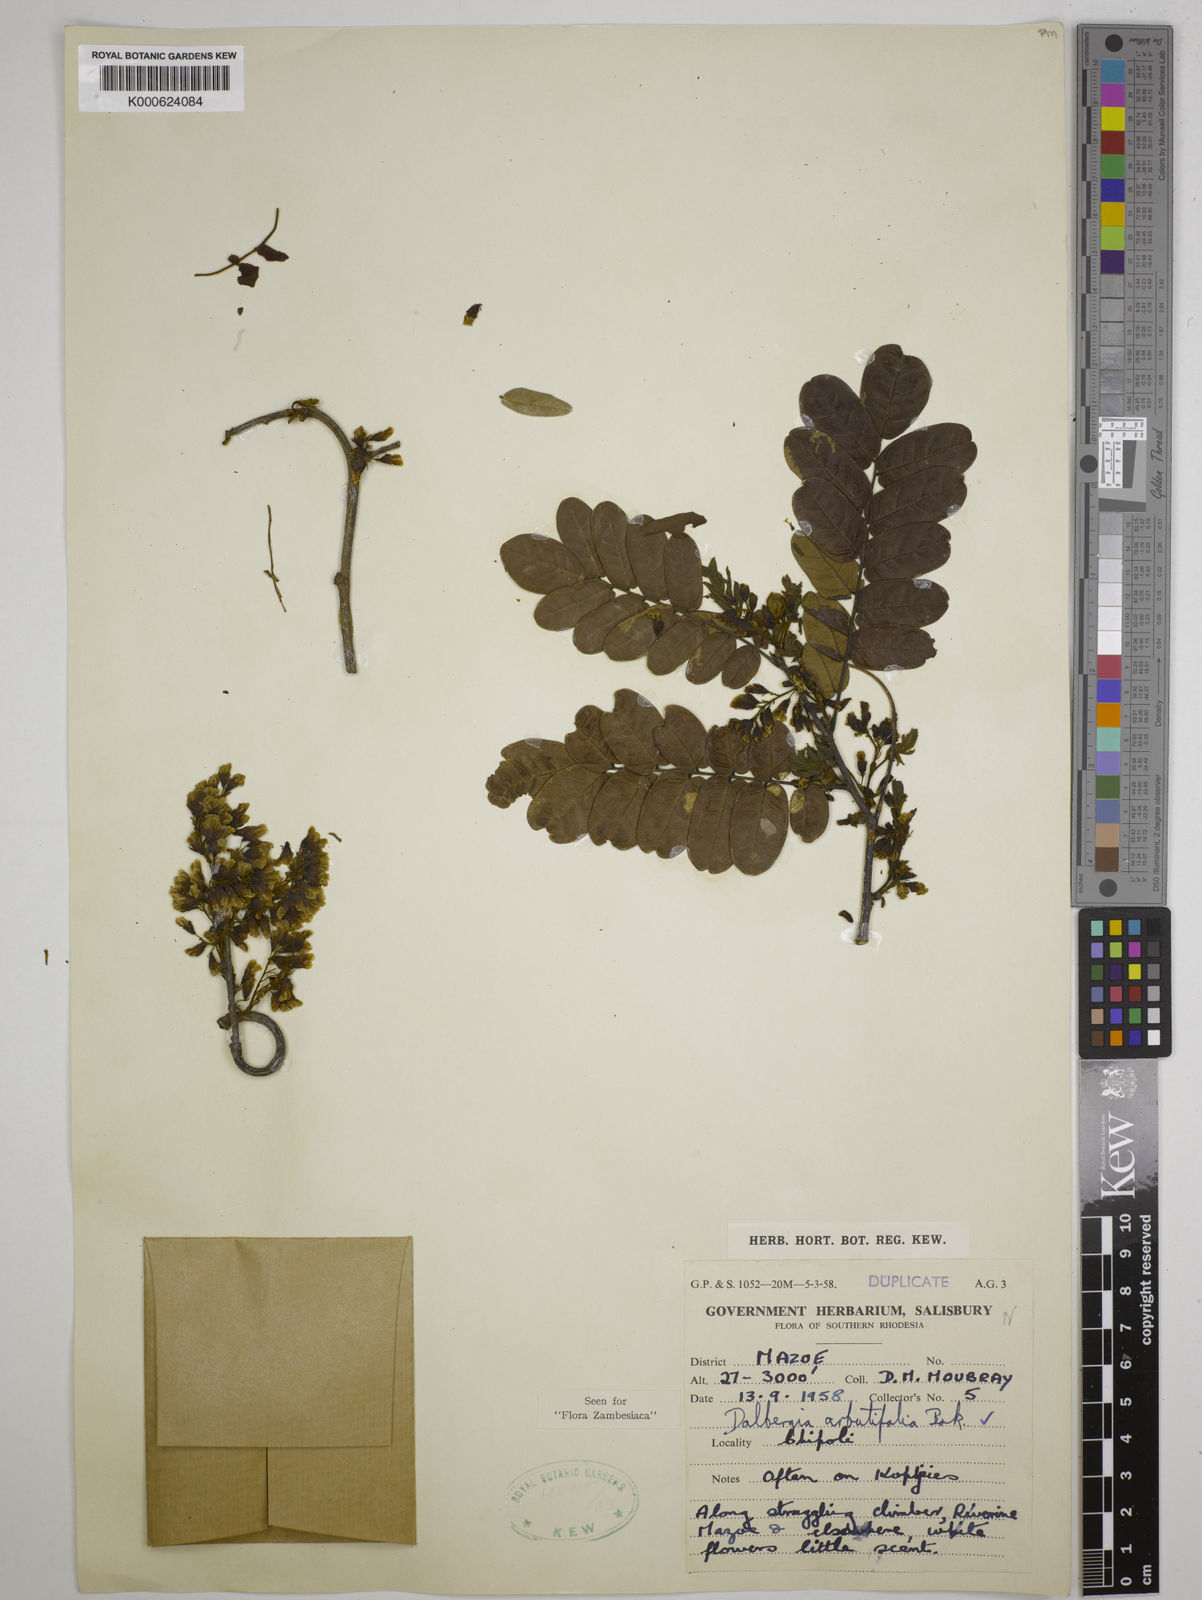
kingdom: Plantae
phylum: Tracheophyta
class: Magnoliopsida
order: Fabales
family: Fabaceae
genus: Dalbergia
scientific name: Dalbergia arbutifolia
